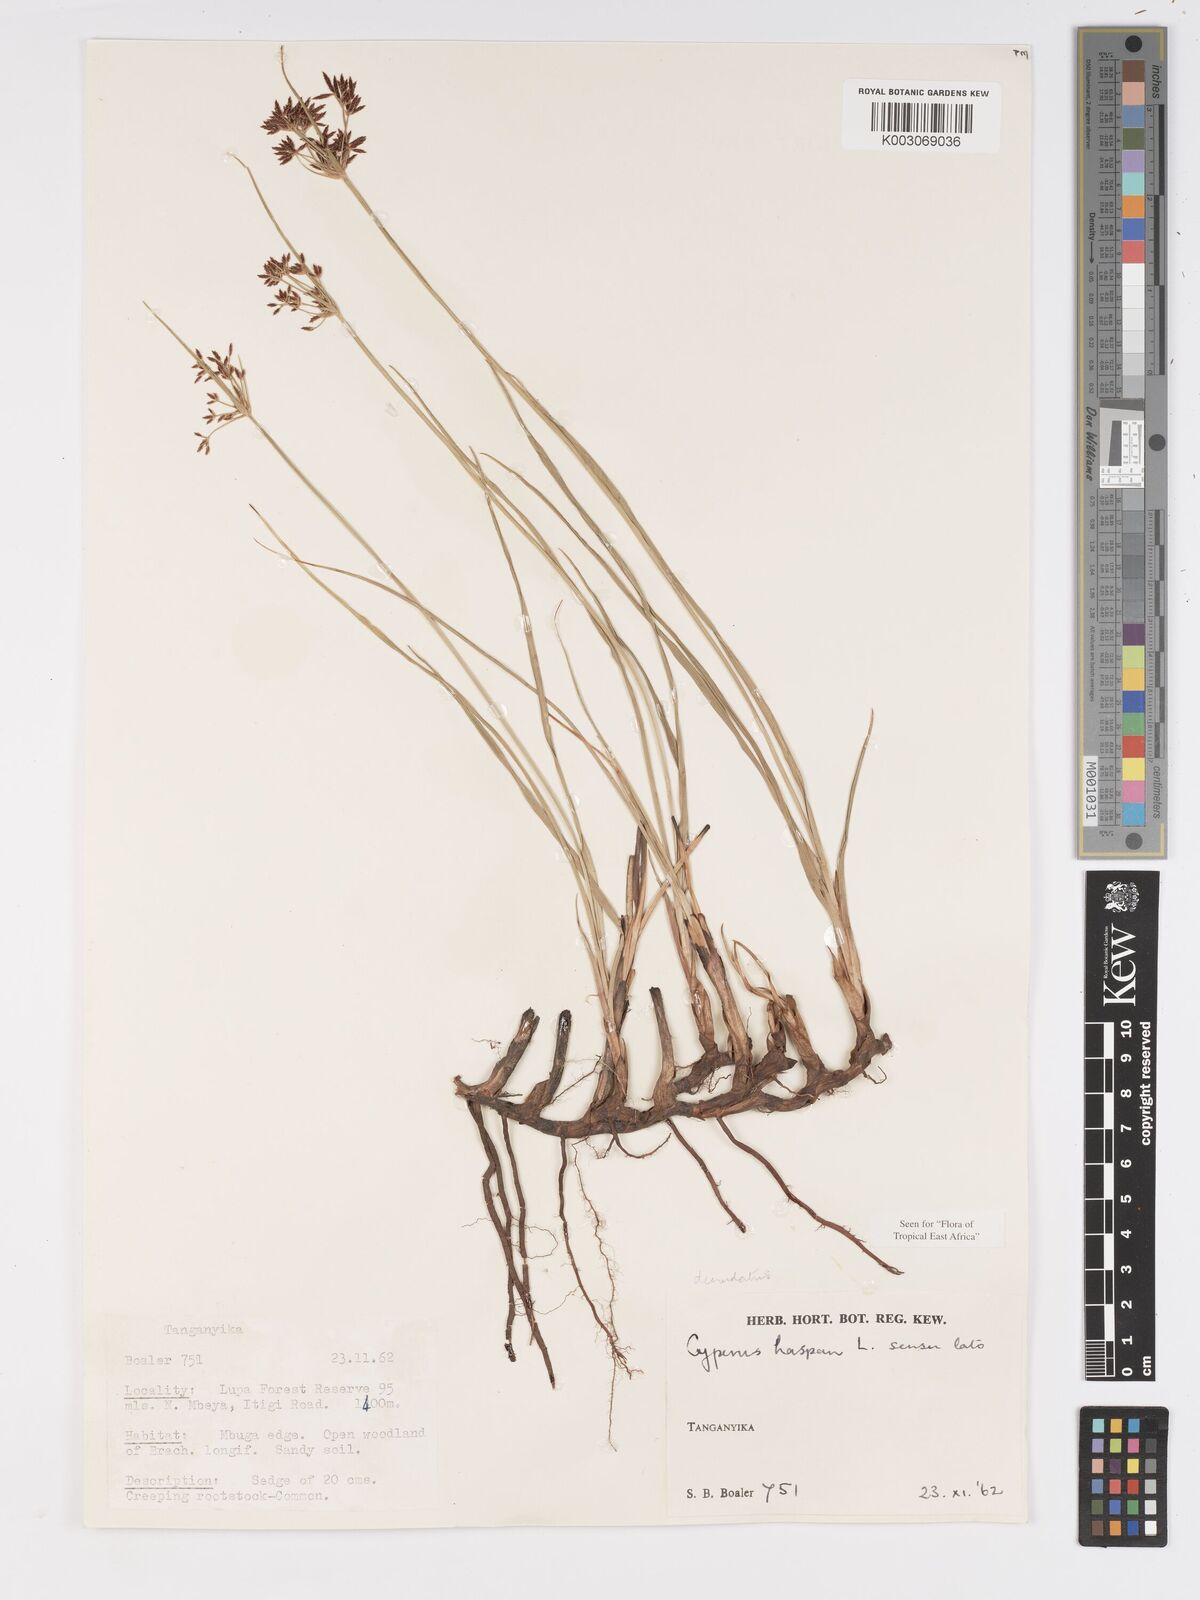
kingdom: Plantae
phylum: Tracheophyta
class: Liliopsida
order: Poales
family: Cyperaceae
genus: Cyperus
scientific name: Cyperus haspan
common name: Haspan flatsedge
